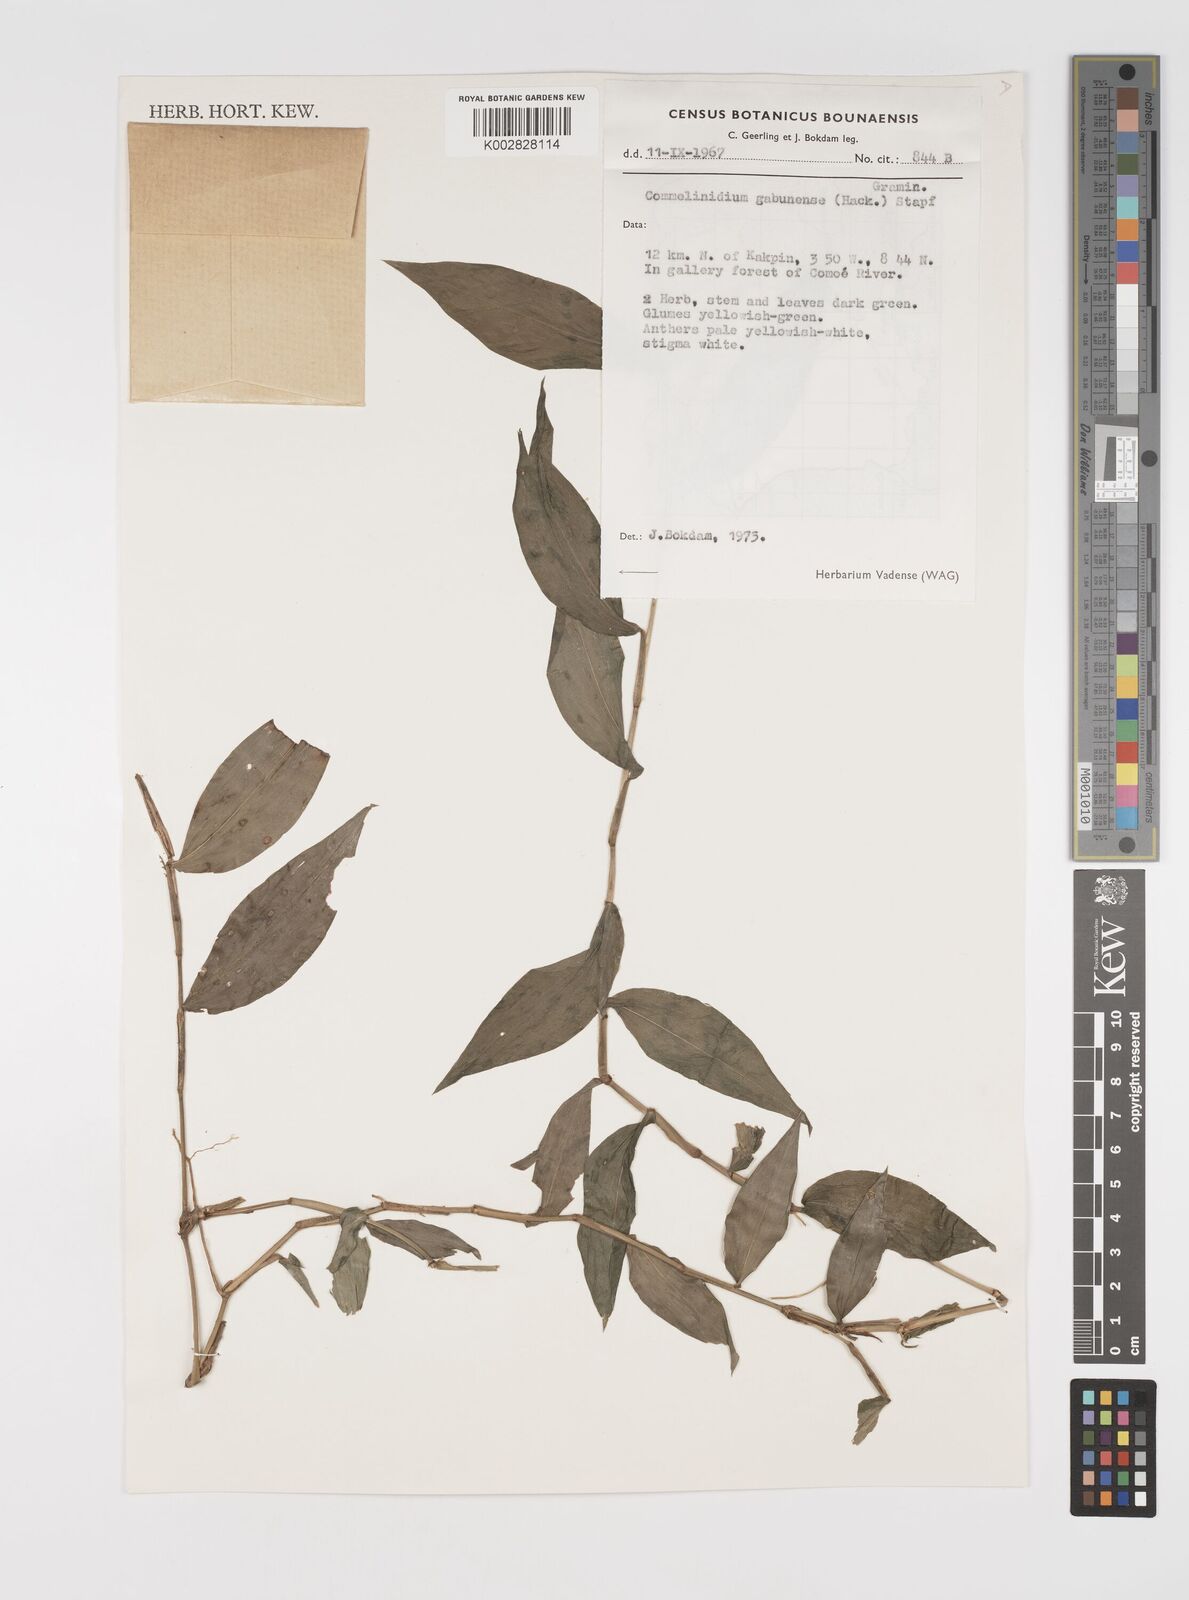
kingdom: Plantae
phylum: Tracheophyta
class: Liliopsida
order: Poales
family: Poaceae
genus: Acroceras
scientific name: Acroceras gabunense
